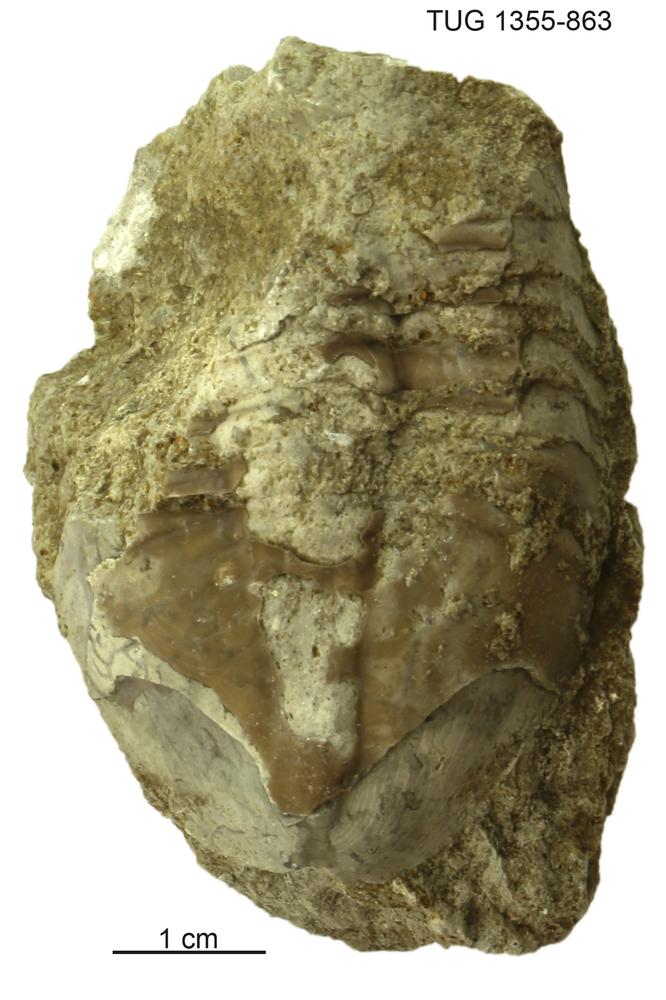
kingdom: Animalia
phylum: Arthropoda
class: Trilobita
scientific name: Trilobita
